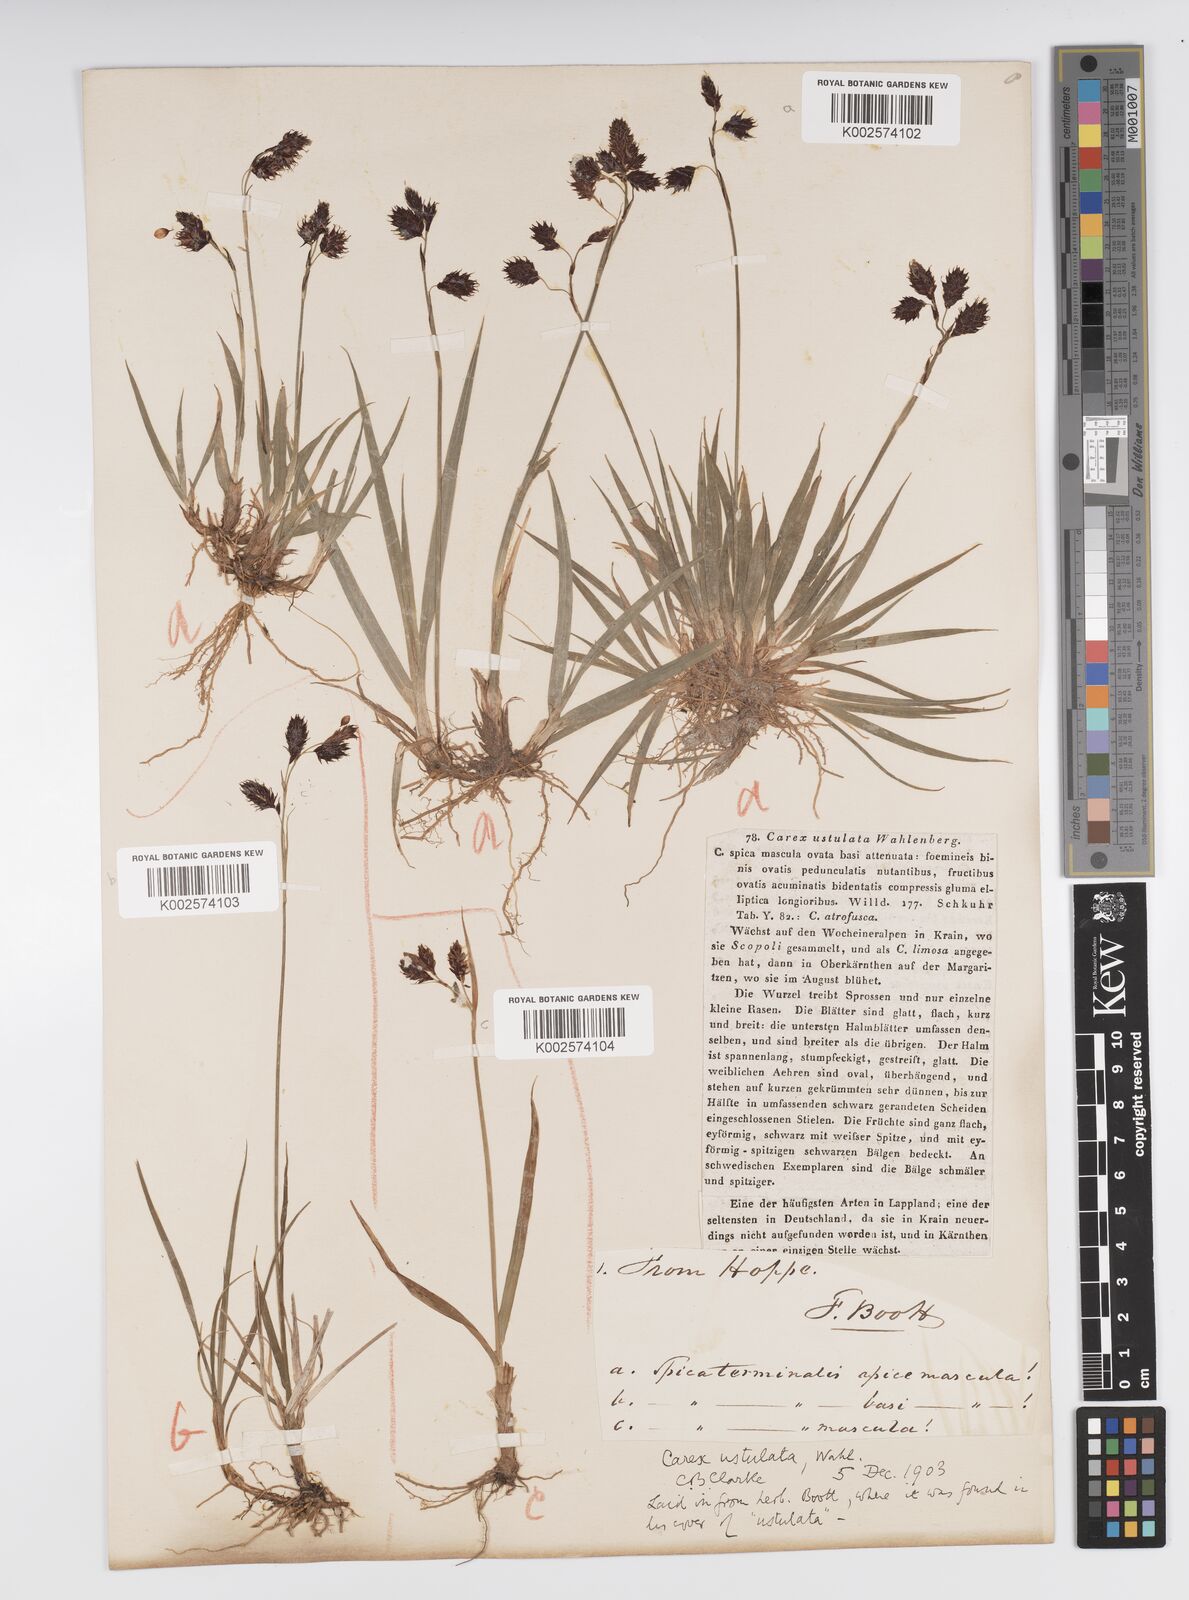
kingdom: Plantae
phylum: Tracheophyta
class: Liliopsida
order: Poales
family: Cyperaceae
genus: Carex
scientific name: Carex atrofusca
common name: Scorched alpine-sedge
